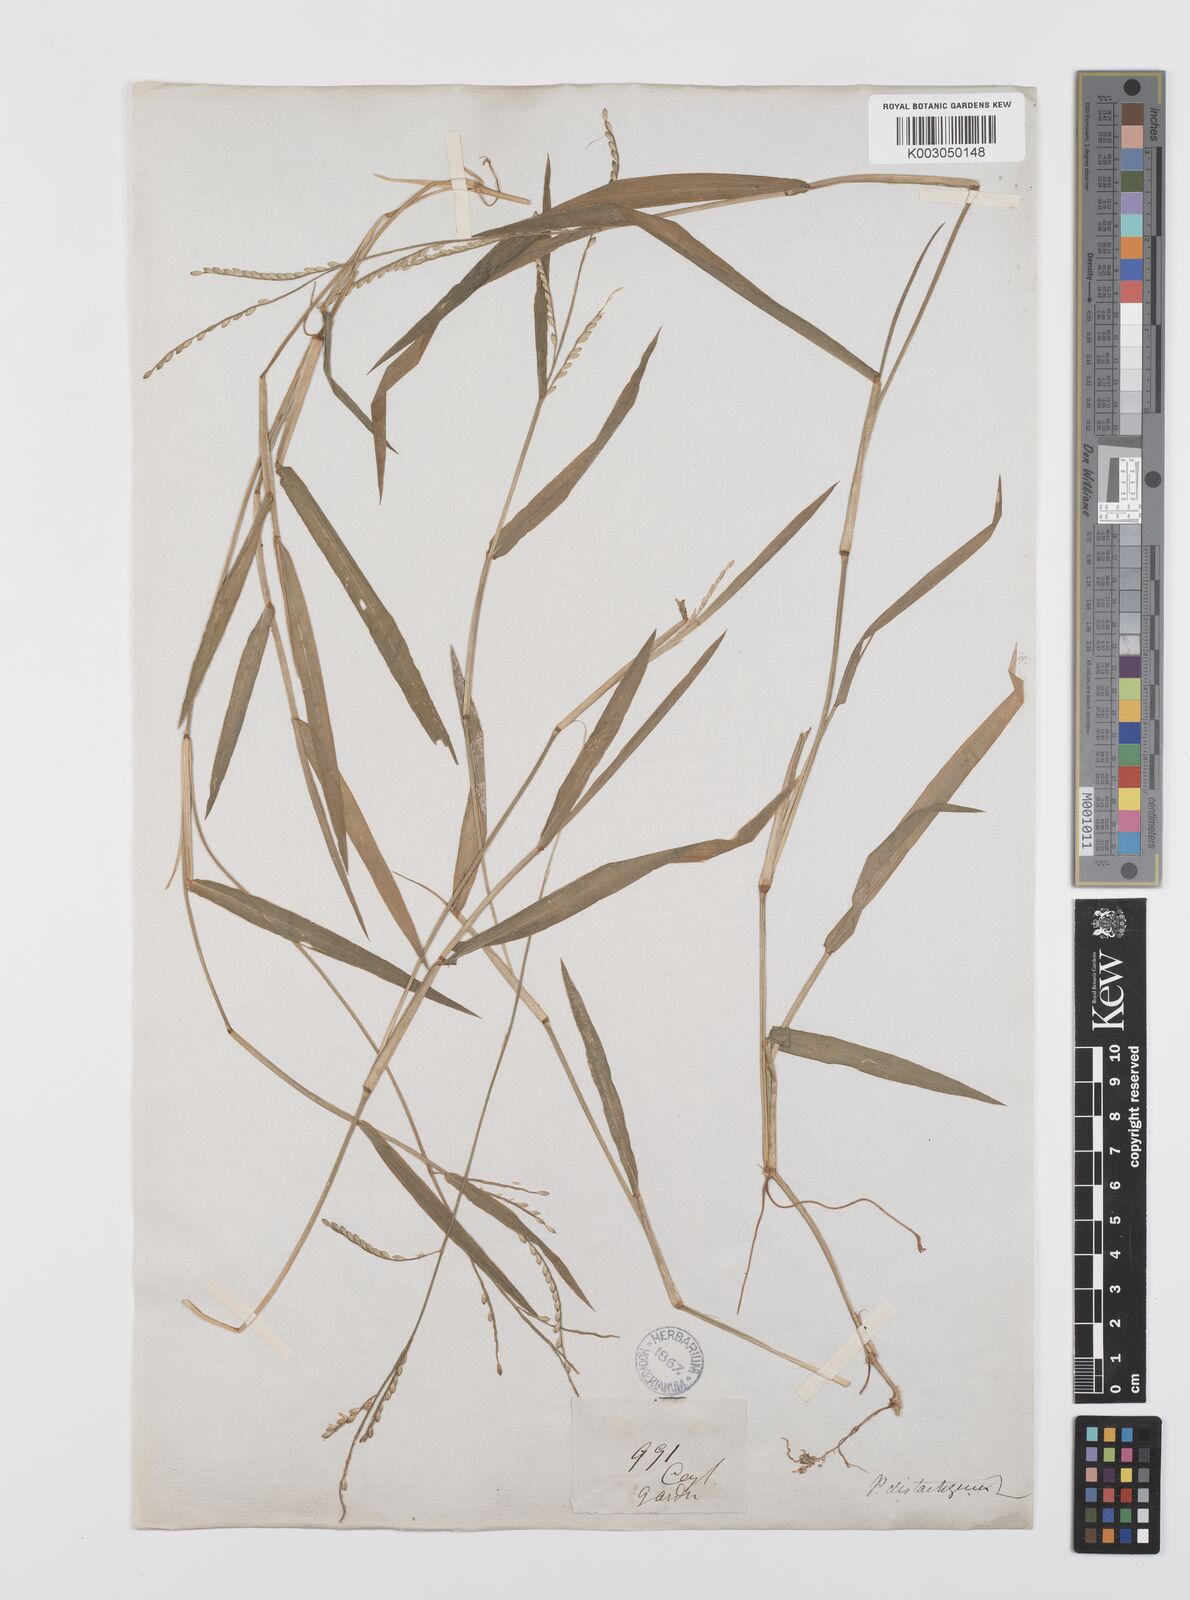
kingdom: Plantae
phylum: Tracheophyta
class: Liliopsida
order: Poales
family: Poaceae
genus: Urochloa
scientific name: Urochloa subquadripara
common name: Armgrass millet
